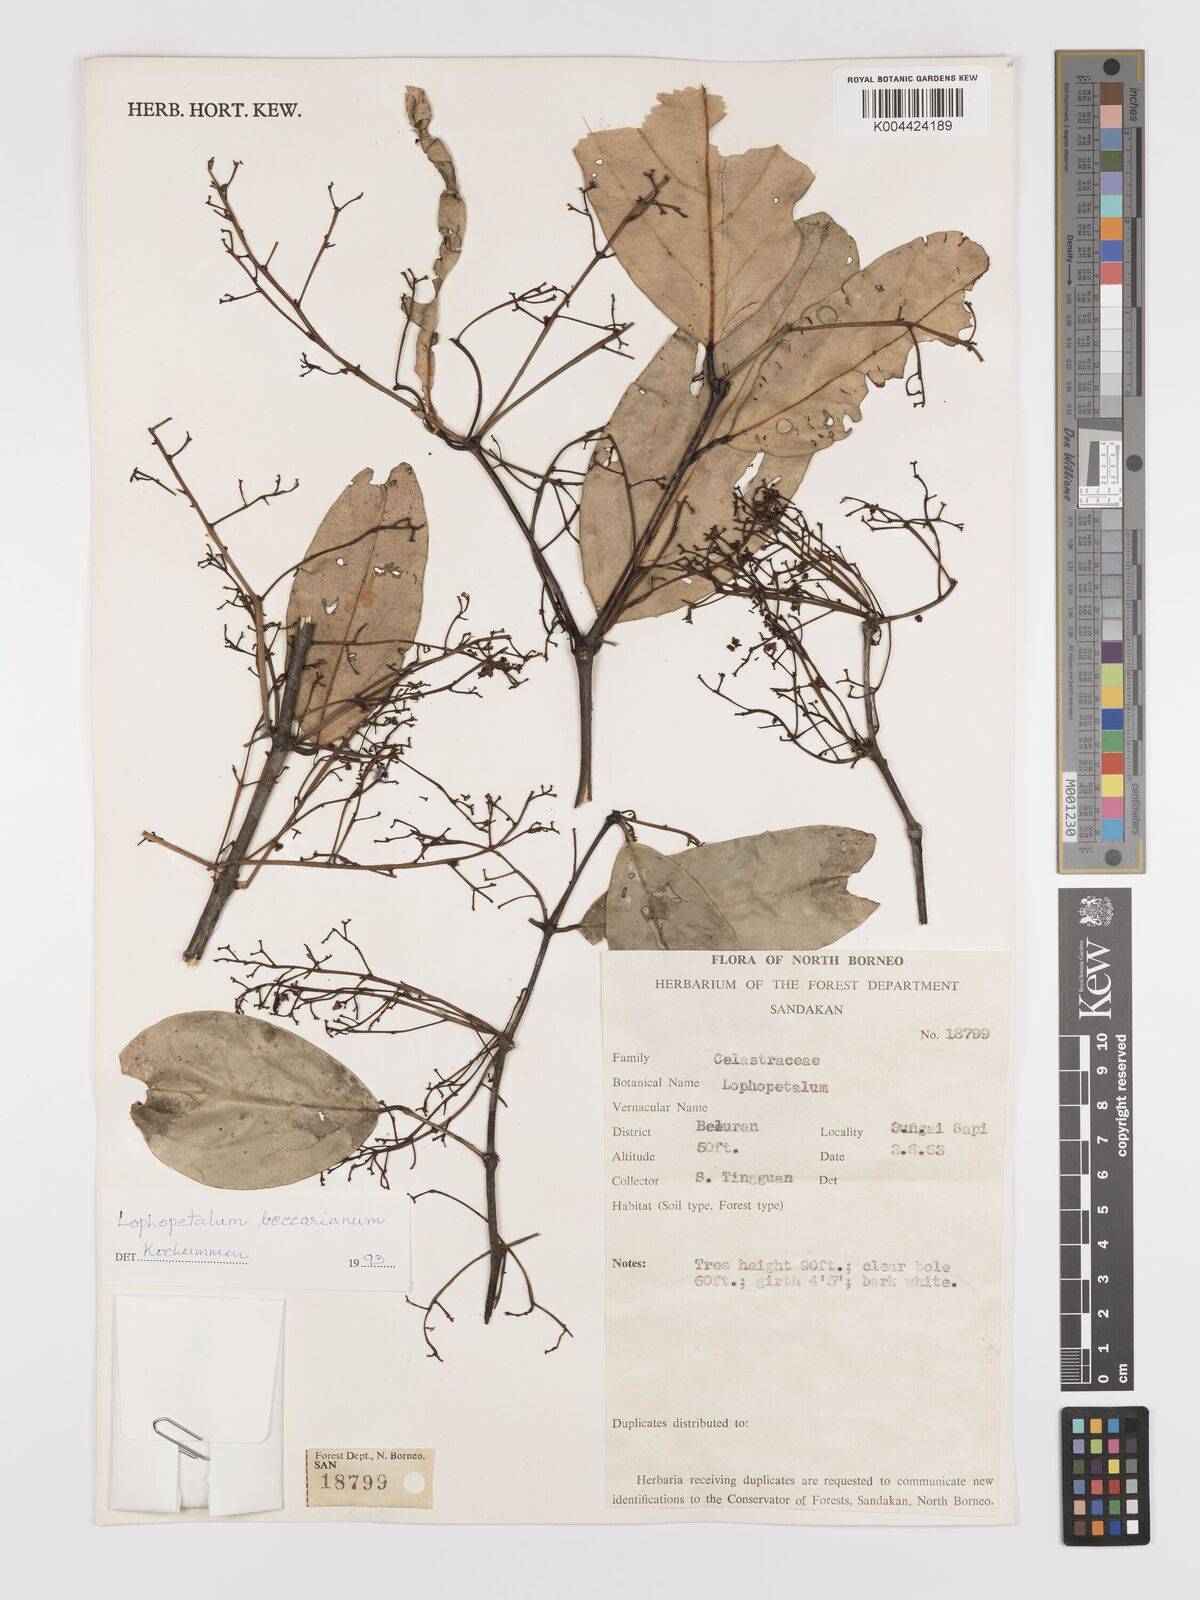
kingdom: Plantae
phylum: Tracheophyta
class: Magnoliopsida
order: Celastrales
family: Celastraceae
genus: Lophopetalum
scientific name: Lophopetalum beccarianum
